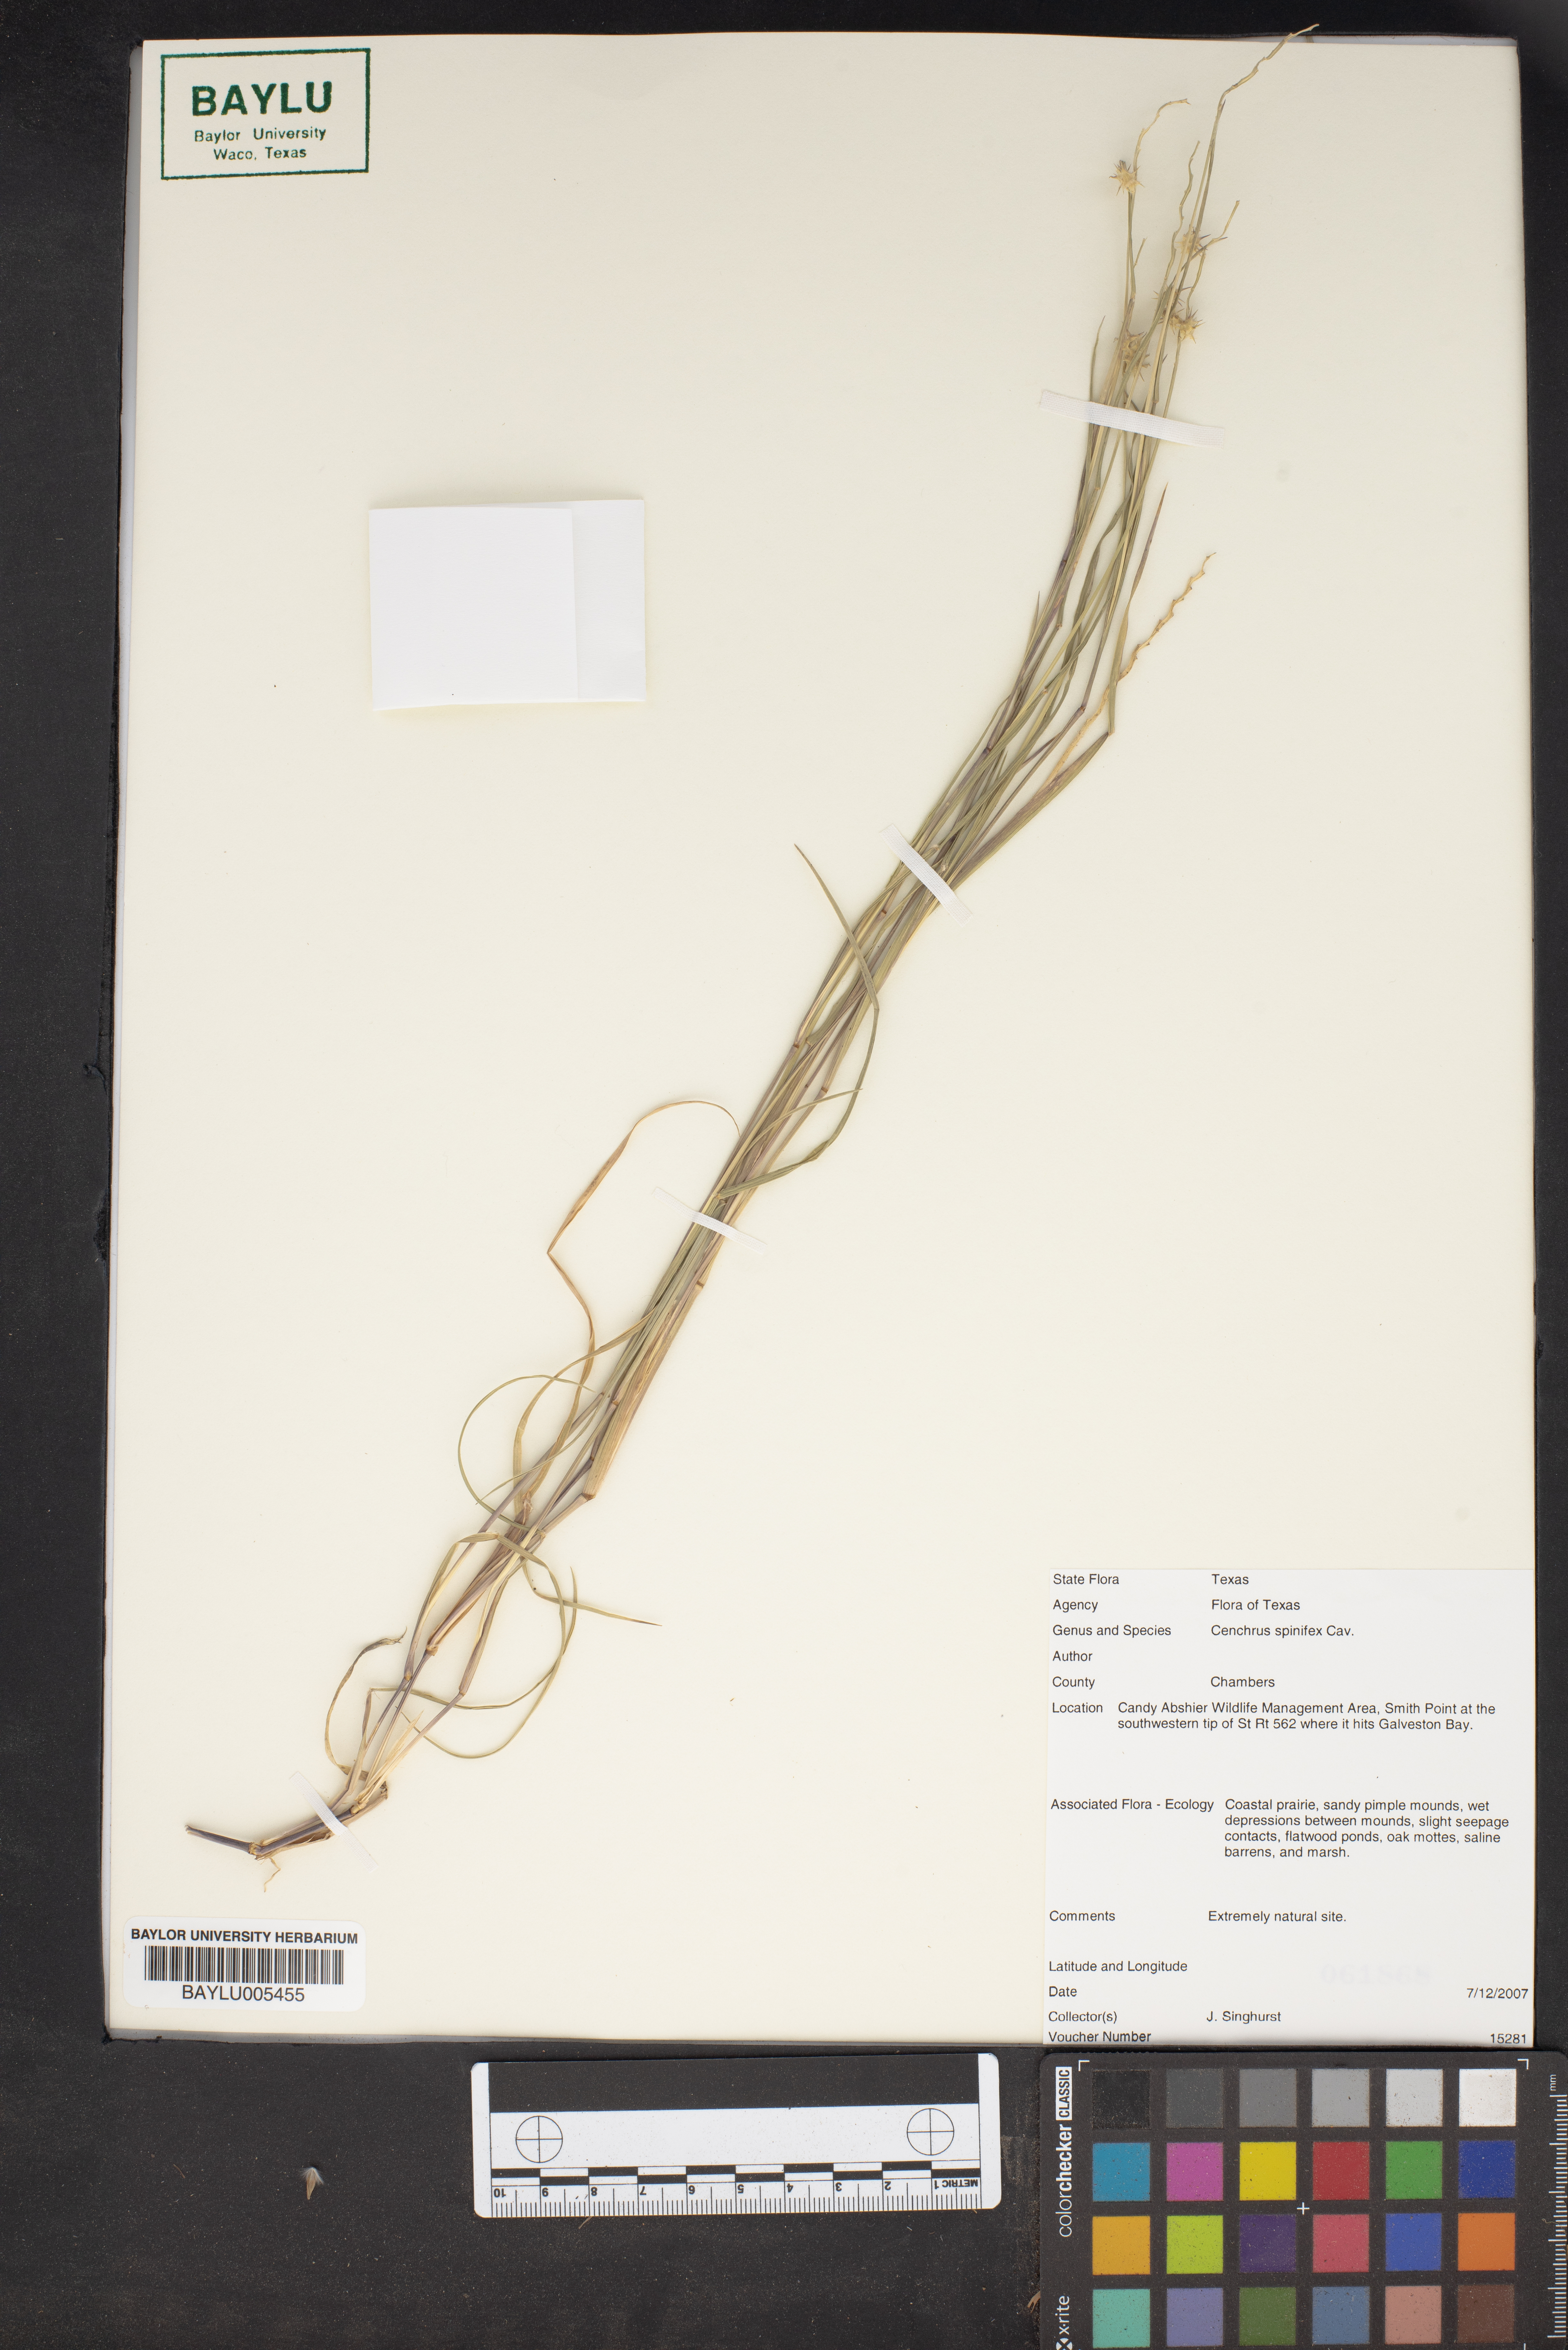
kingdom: Plantae
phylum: Tracheophyta
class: Liliopsida
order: Poales
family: Poaceae
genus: Cenchrus
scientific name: Cenchrus spinifex
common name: Coast sandbur
